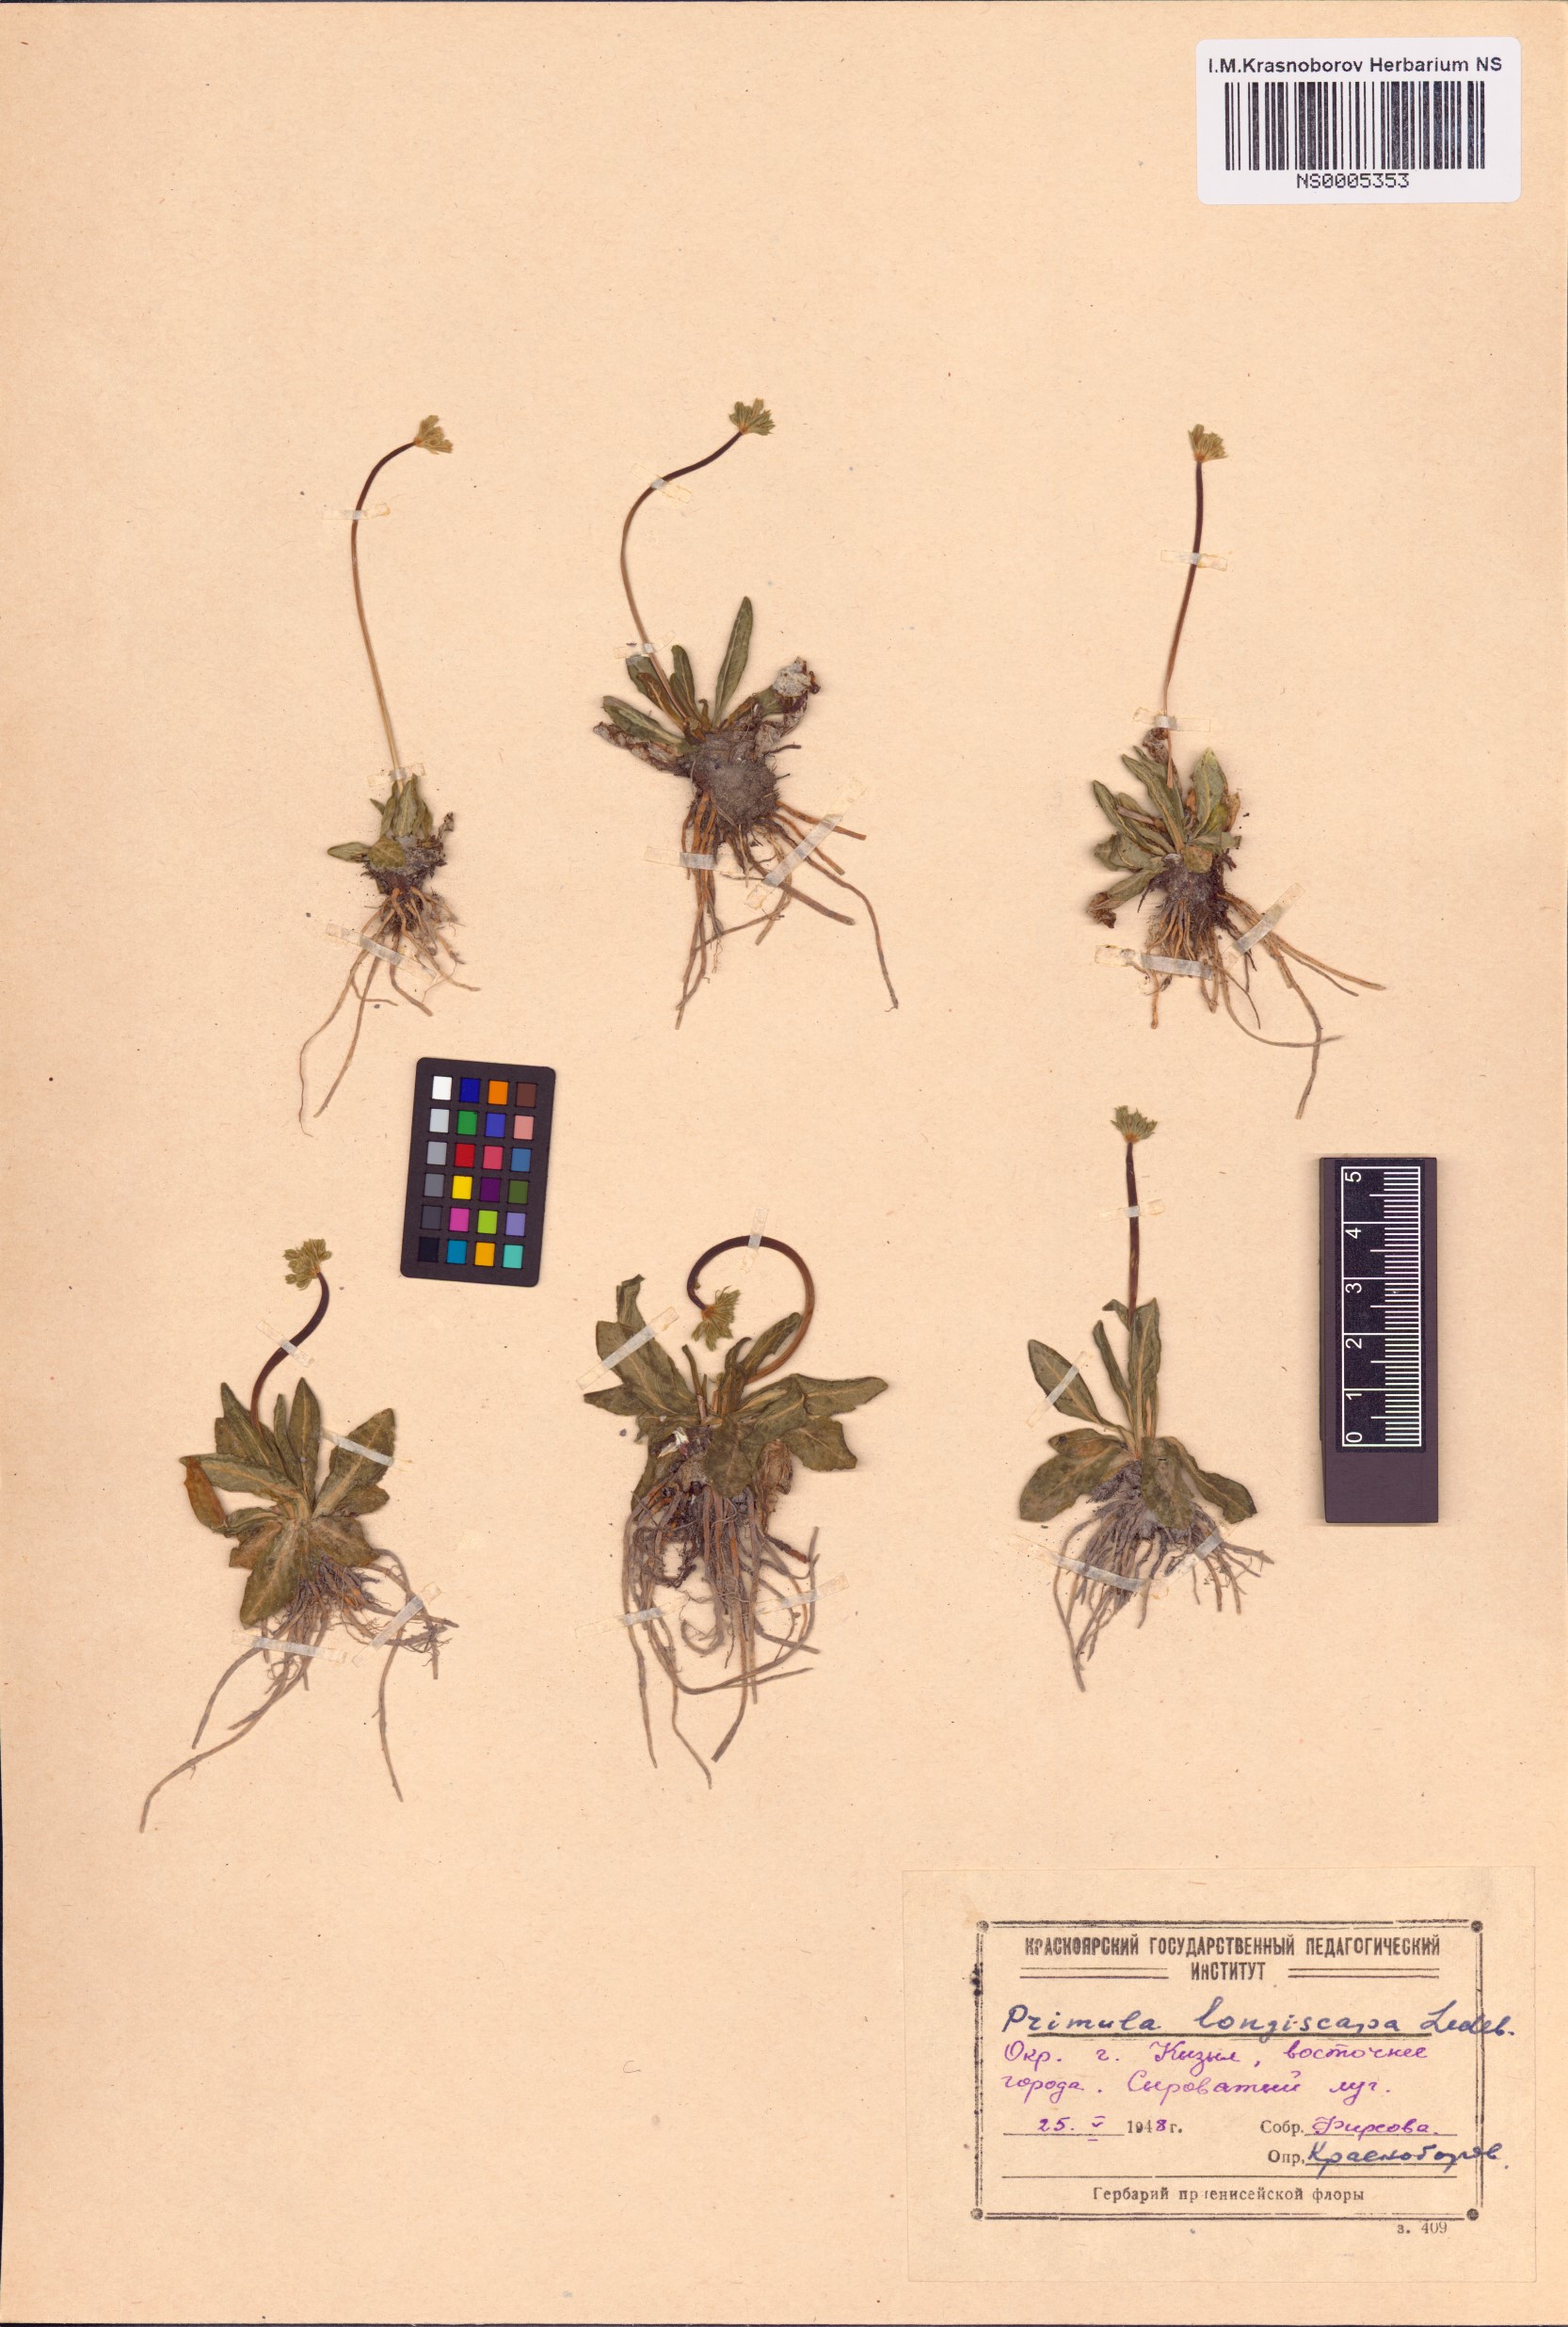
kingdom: Plantae
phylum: Tracheophyta
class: Magnoliopsida
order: Ericales
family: Primulaceae
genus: Primula
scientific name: Primula longiscapa
